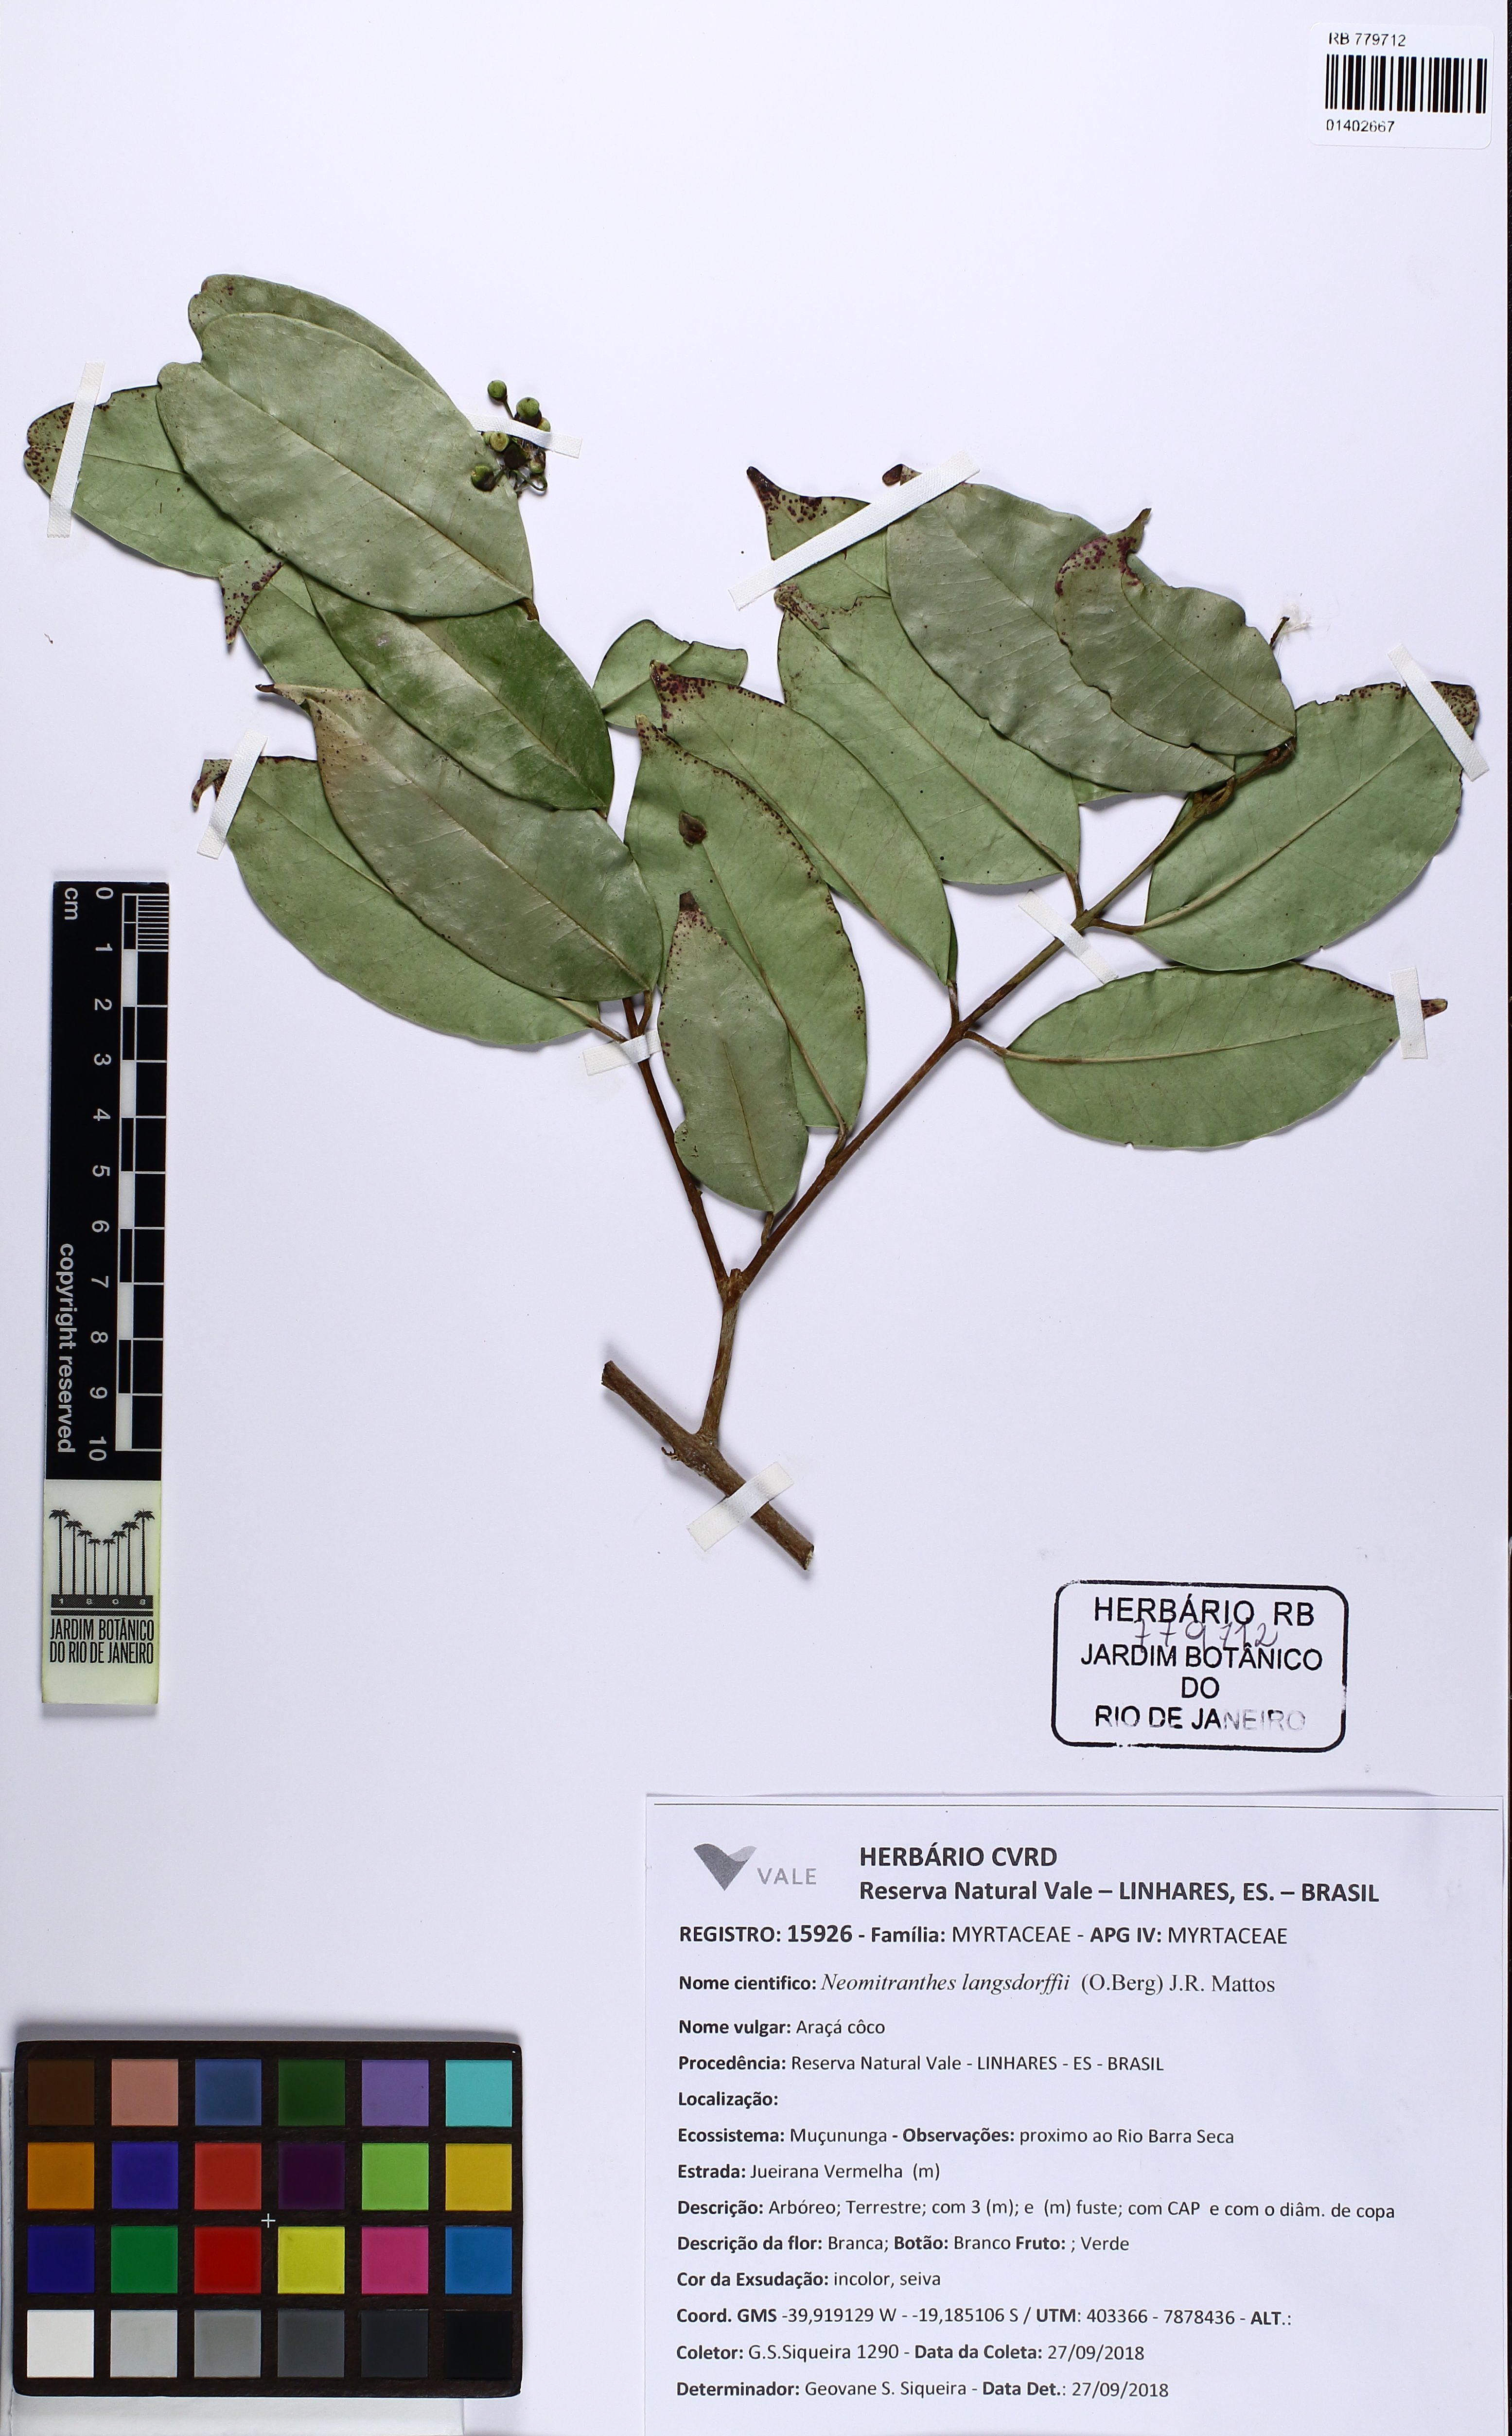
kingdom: Plantae
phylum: Tracheophyta
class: Magnoliopsida
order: Myrtales
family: Myrtaceae
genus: Neomitranthes
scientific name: Neomitranthes langsdorffii
